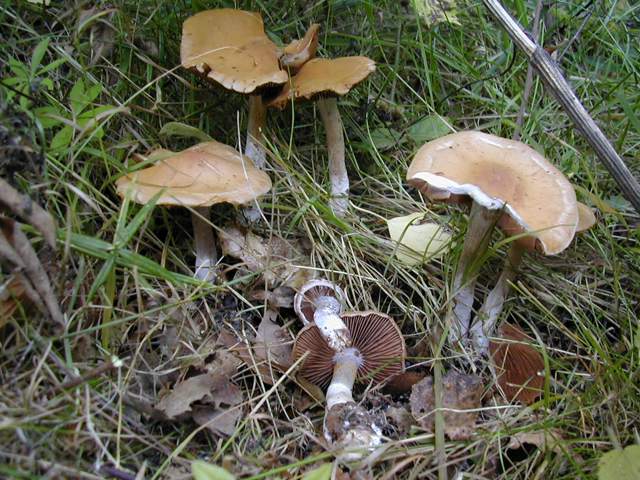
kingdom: Fungi
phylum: Basidiomycota
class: Agaricomycetes
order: Agaricales
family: Cortinariaceae
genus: Cortinarius
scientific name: Cortinarius bivelus
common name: orangebrun slørhat
